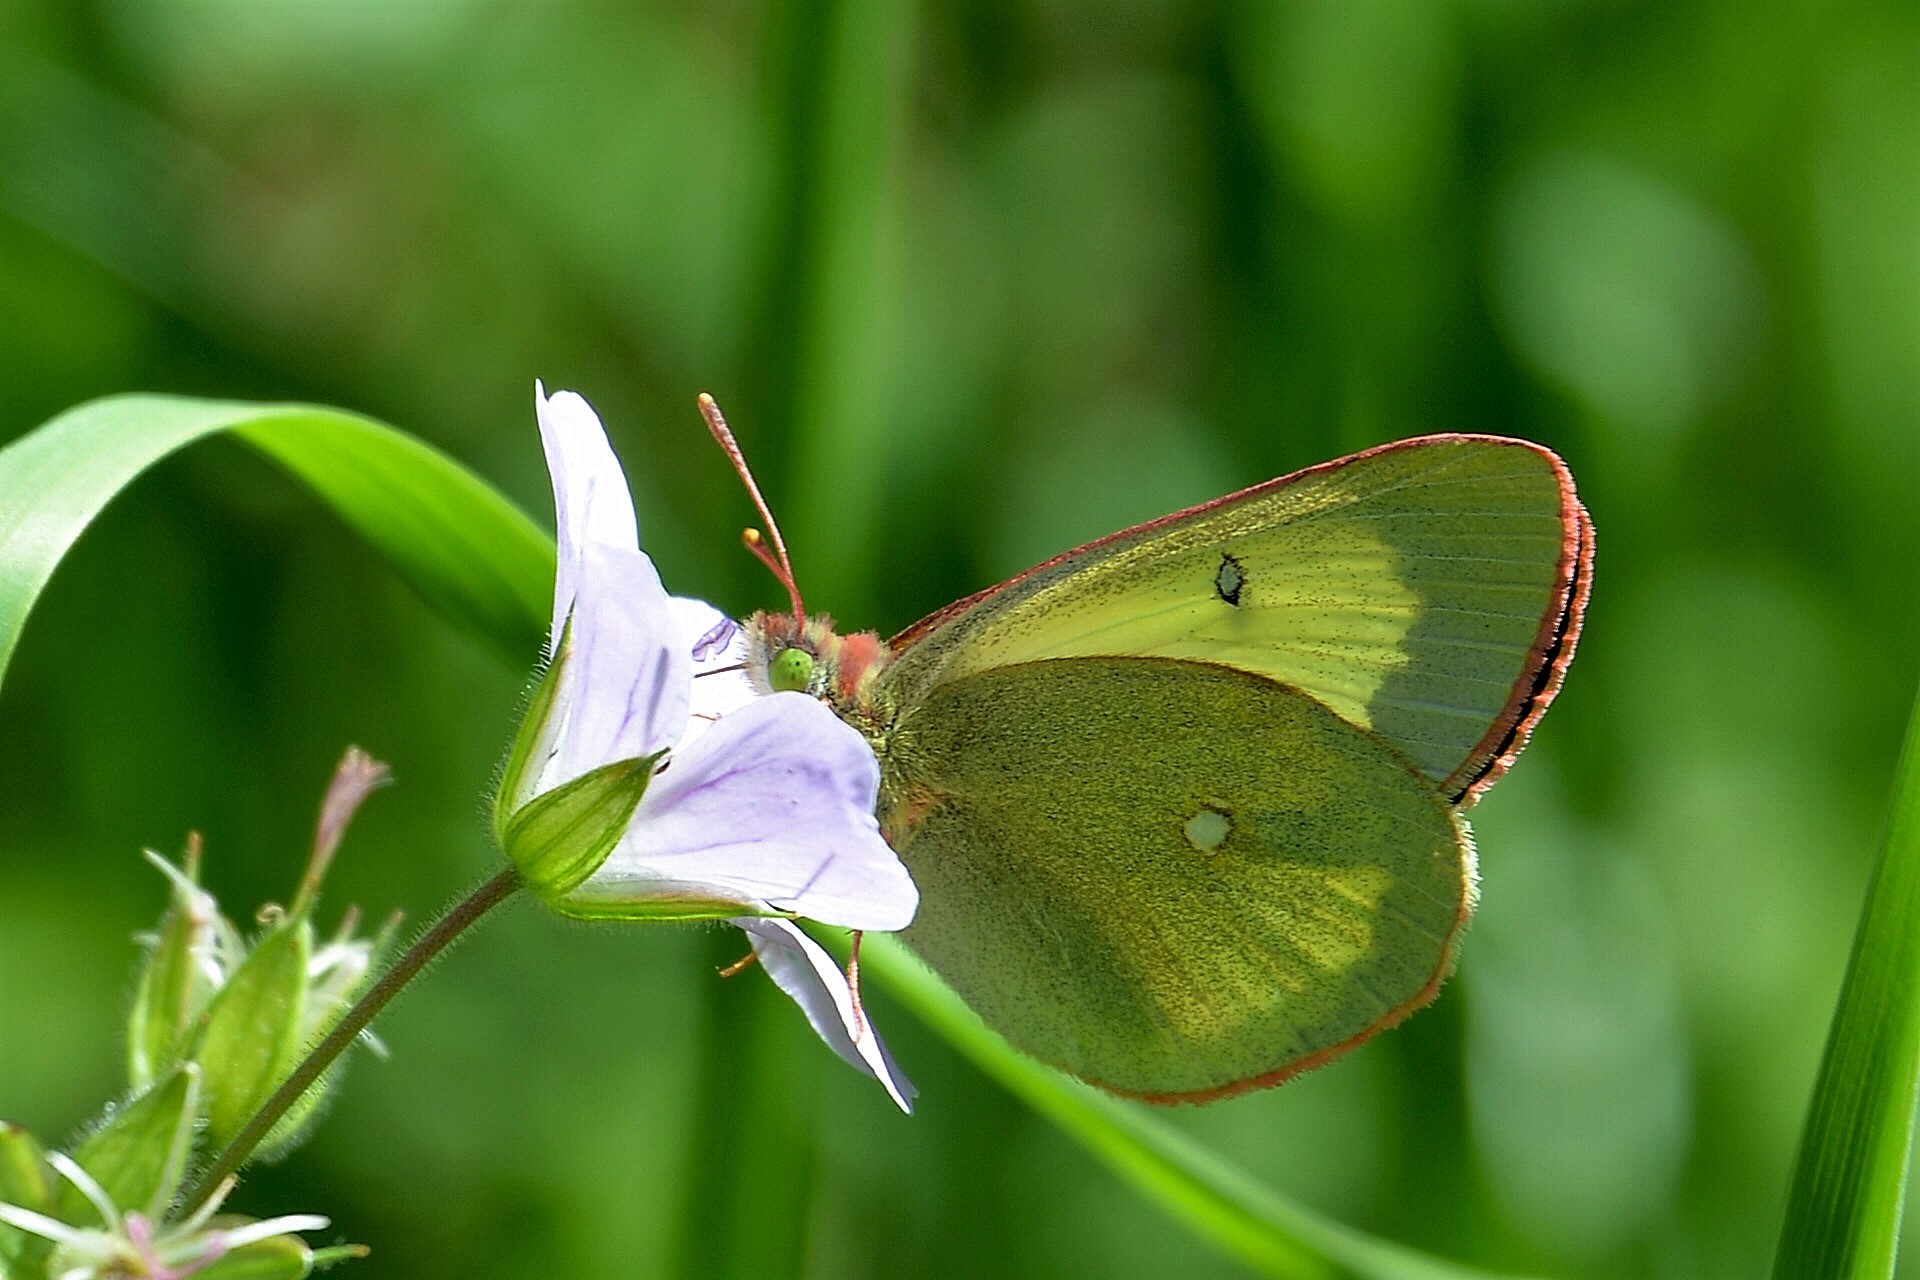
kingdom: Animalia
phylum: Arthropoda
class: Insecta
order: Lepidoptera
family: Pieridae
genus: Colias
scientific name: Colias palaeno
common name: Moorland clouded yellow
